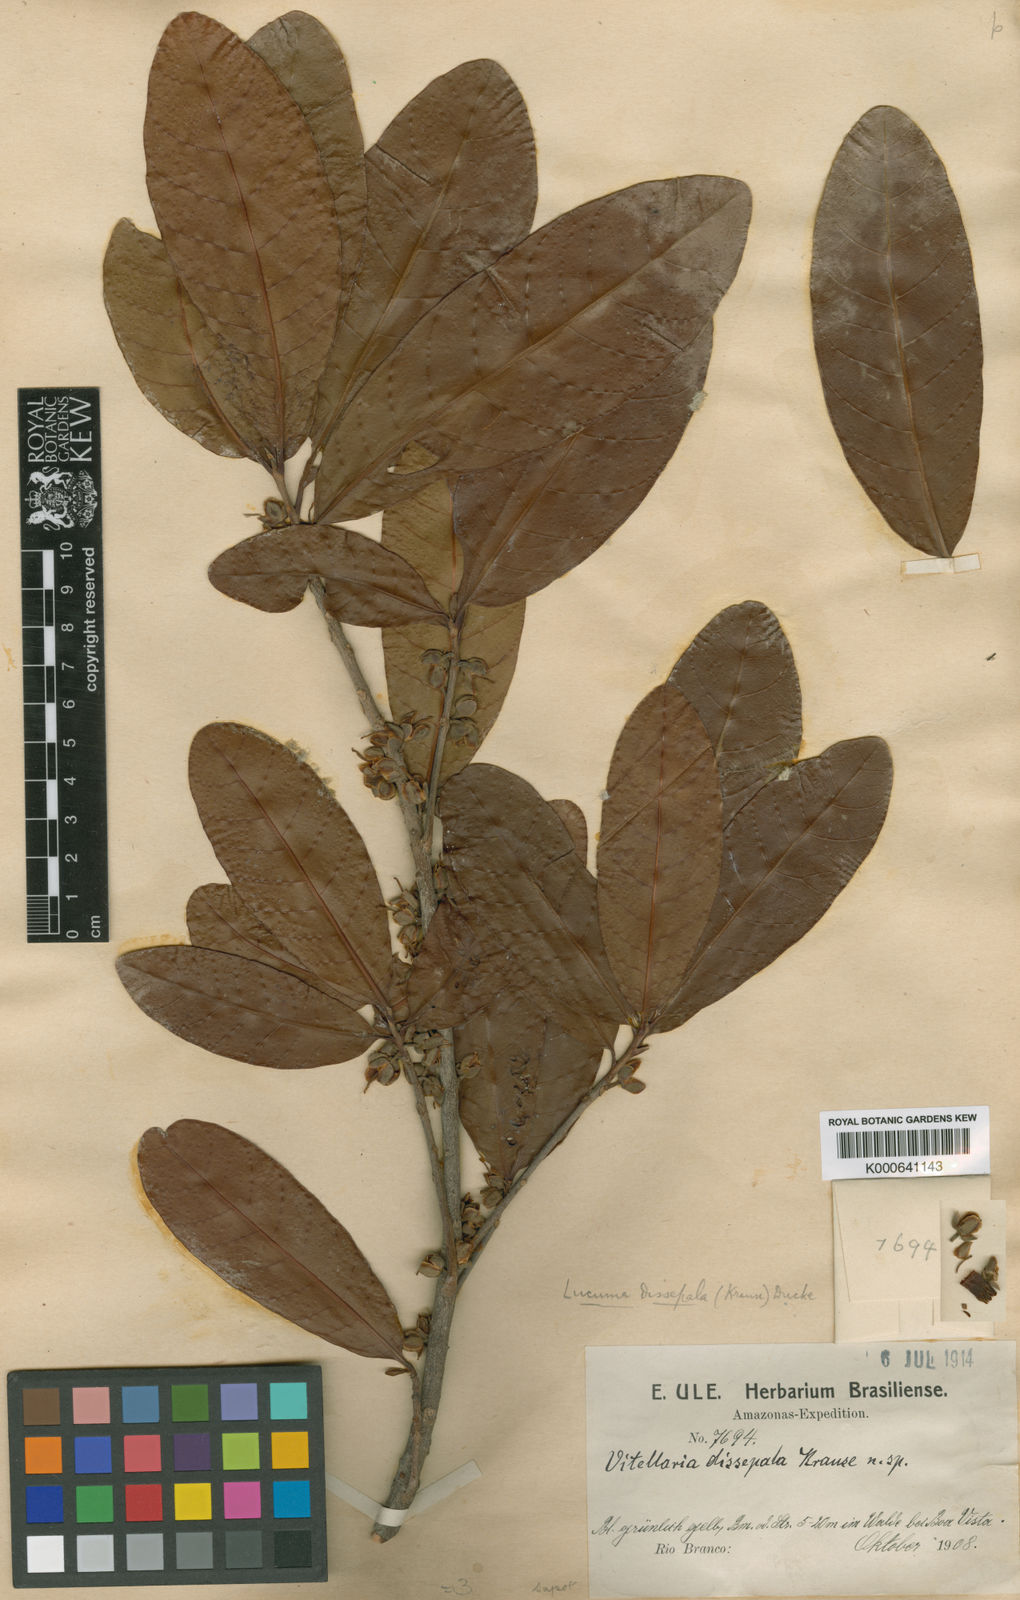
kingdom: Plantae
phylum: Tracheophyta
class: Magnoliopsida
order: Ericales
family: Sapotaceae
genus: Pouteria
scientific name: Pouteria venosa
